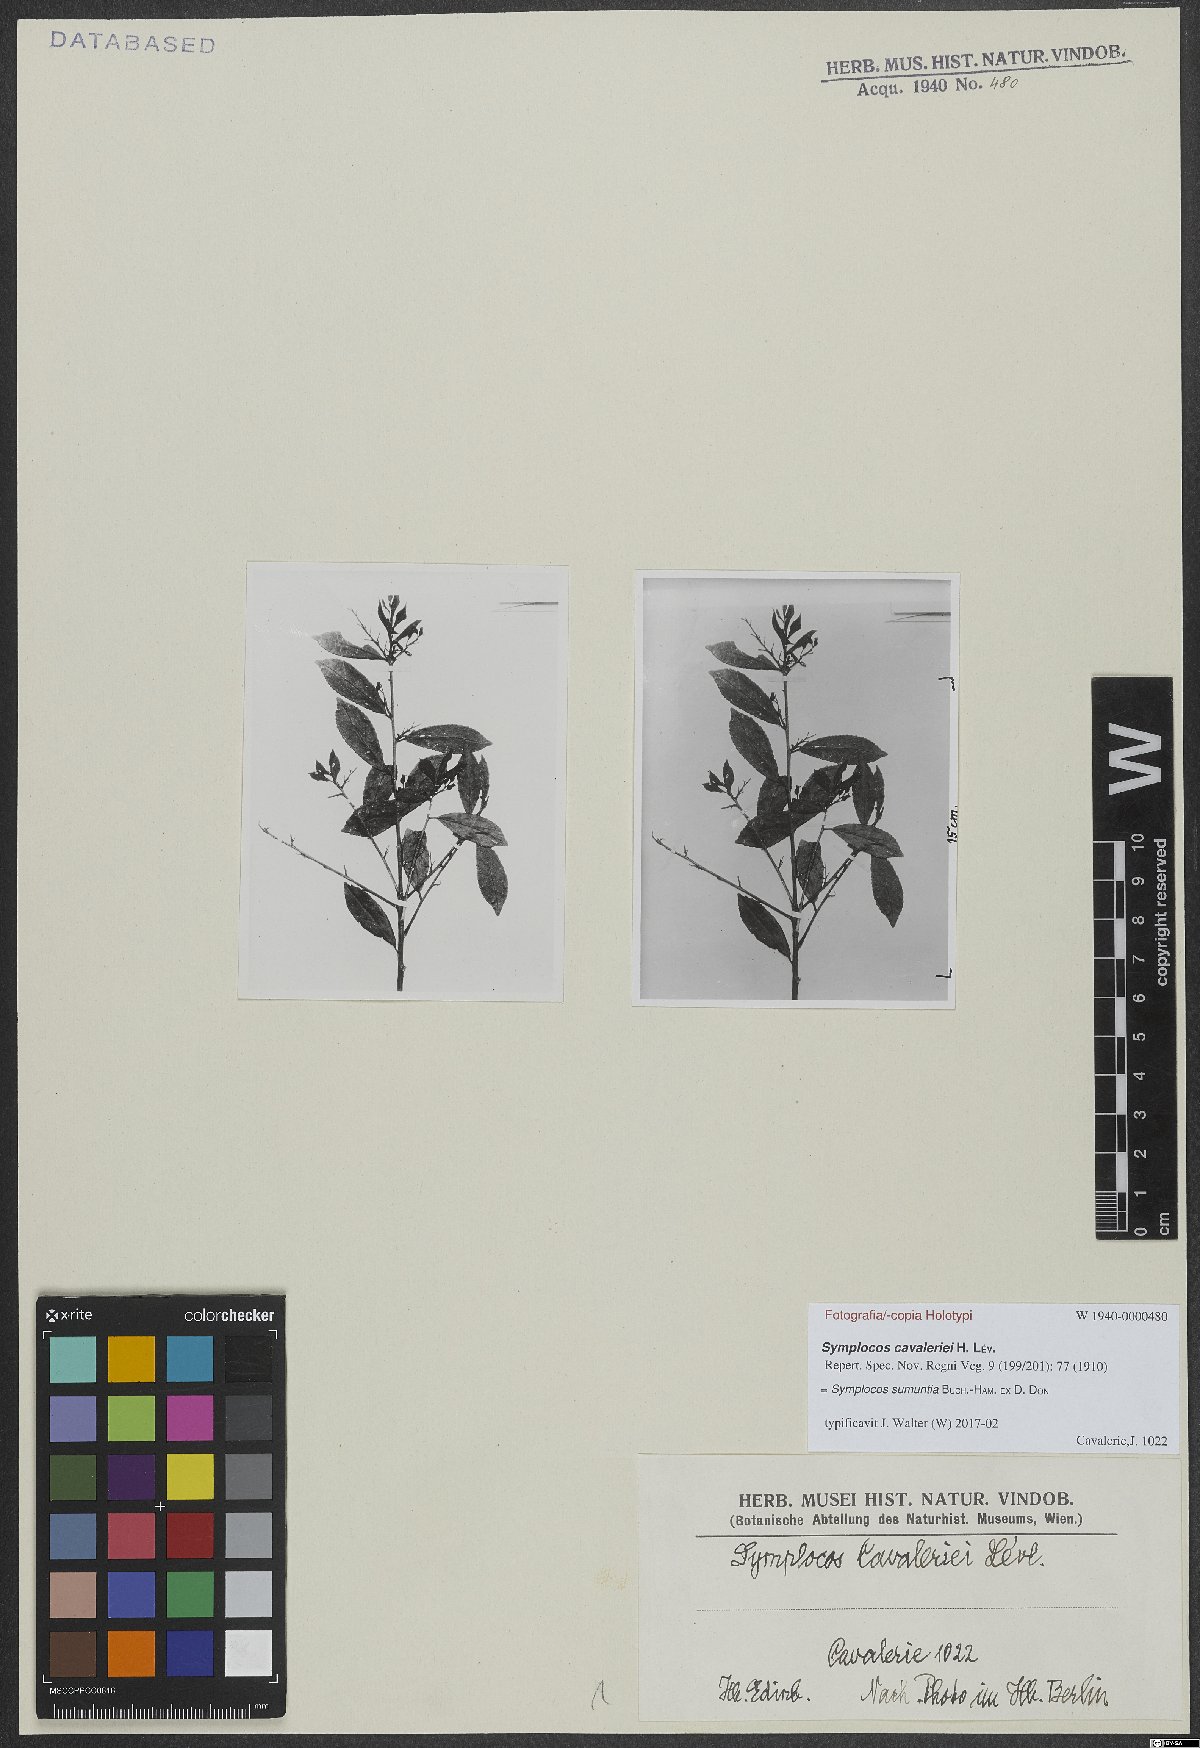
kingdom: Plantae
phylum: Tracheophyta
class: Magnoliopsida
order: Ericales
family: Symplocaceae
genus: Symplocos
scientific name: Symplocos sumuntia
